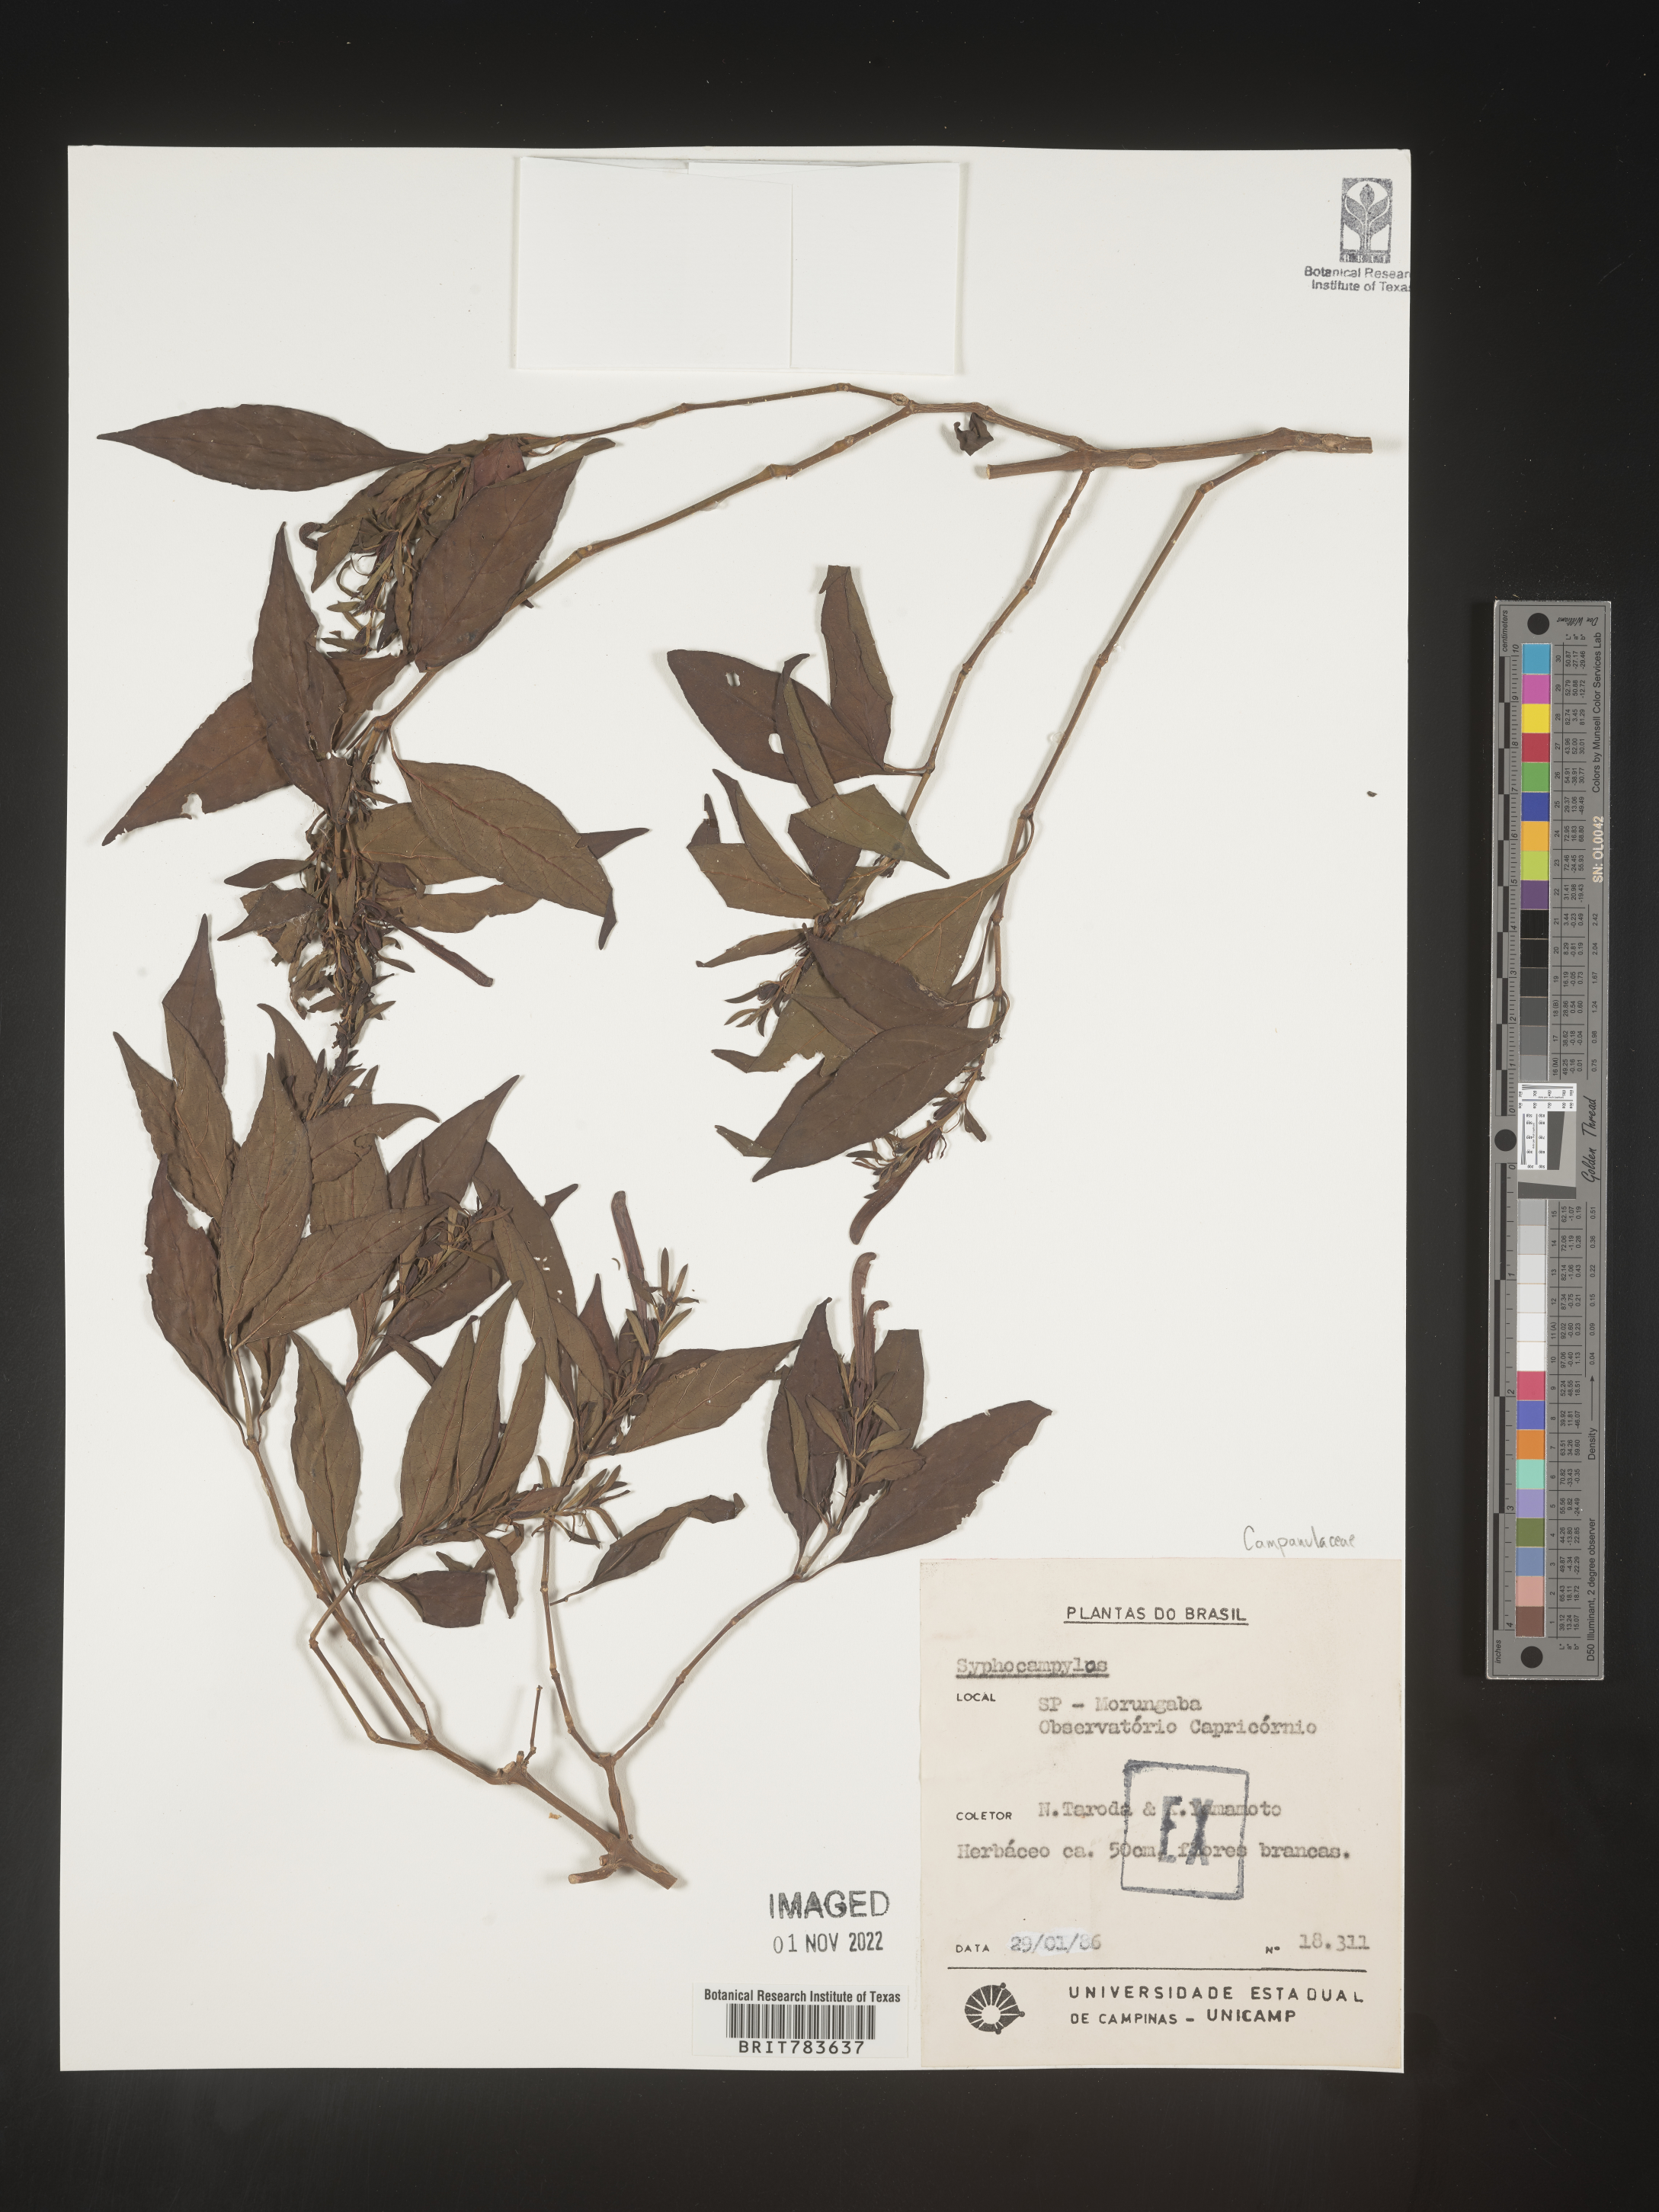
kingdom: Plantae
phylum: Tracheophyta
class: Magnoliopsida
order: Asterales
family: Campanulaceae
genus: Siphocampylus
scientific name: Siphocampylus
